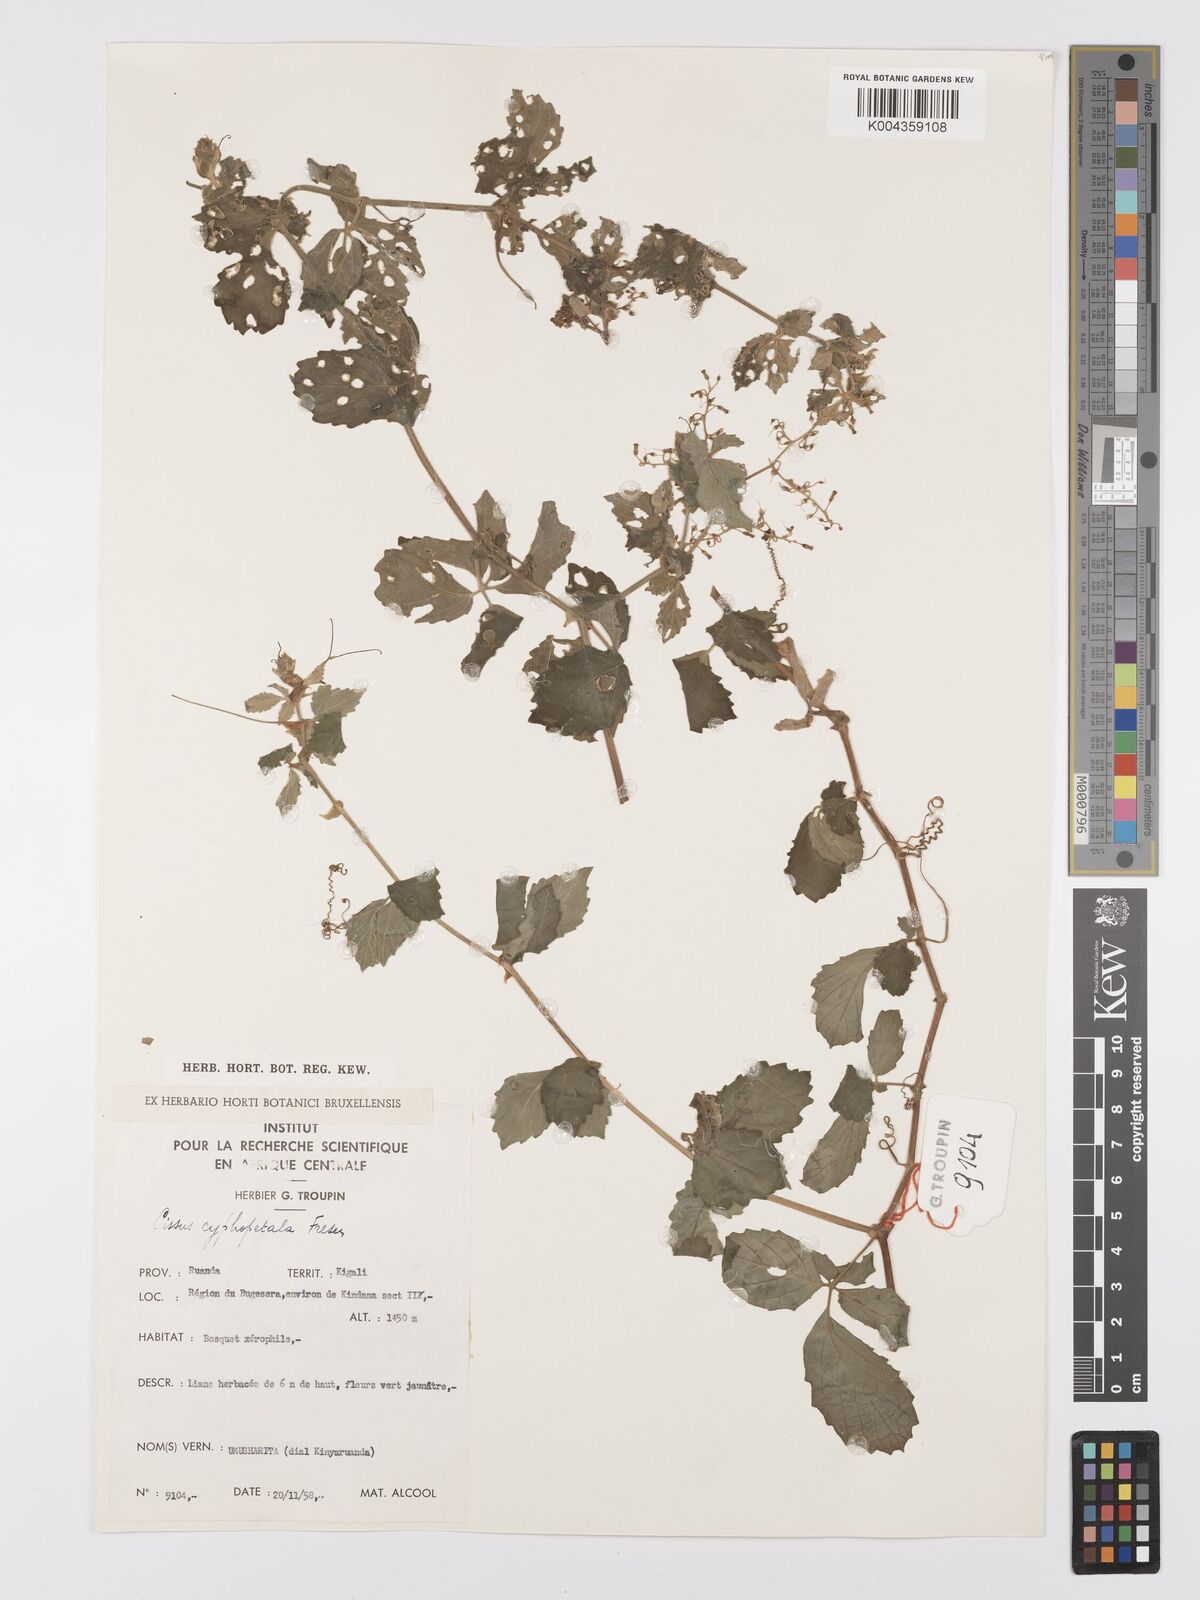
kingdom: Plantae
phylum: Tracheophyta
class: Magnoliopsida
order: Vitales
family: Vitaceae
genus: Cyphostemma
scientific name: Cyphostemma cyphopetalum
